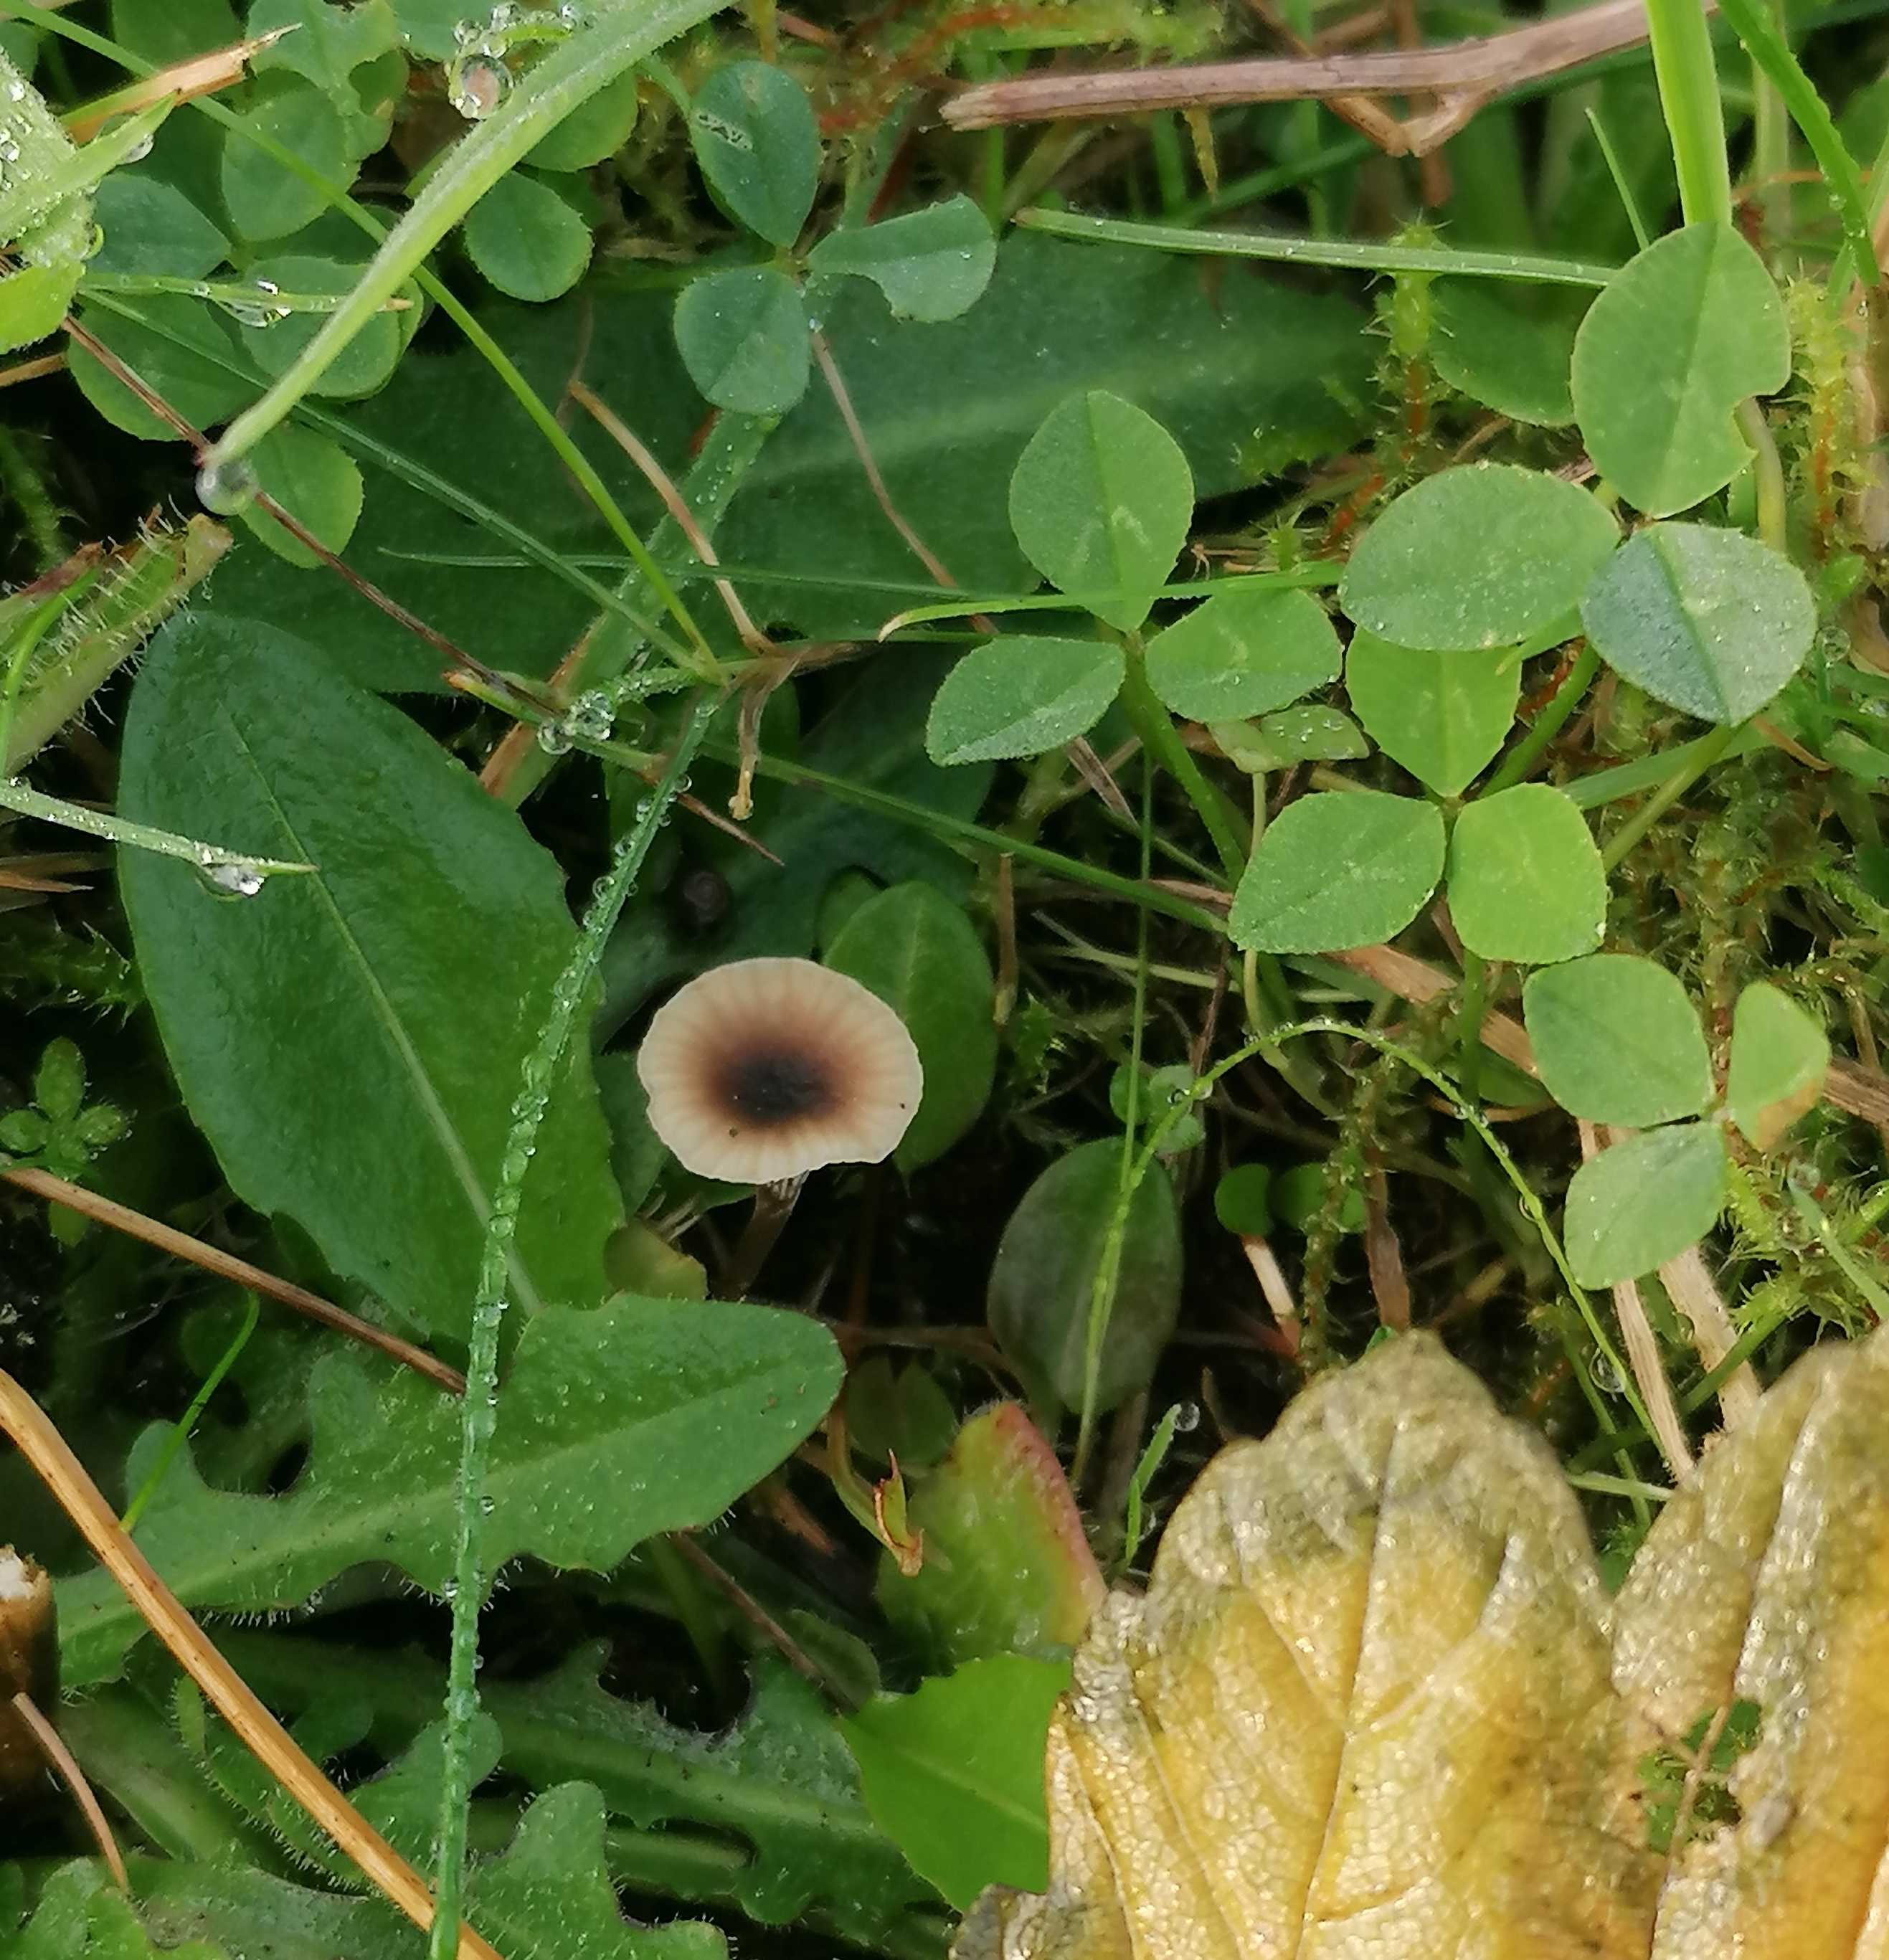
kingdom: Fungi
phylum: Basidiomycota
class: Agaricomycetes
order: Hymenochaetales
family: Rickenellaceae
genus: Rickenella
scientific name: Rickenella swartzii
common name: finstokket mosnavlehat
